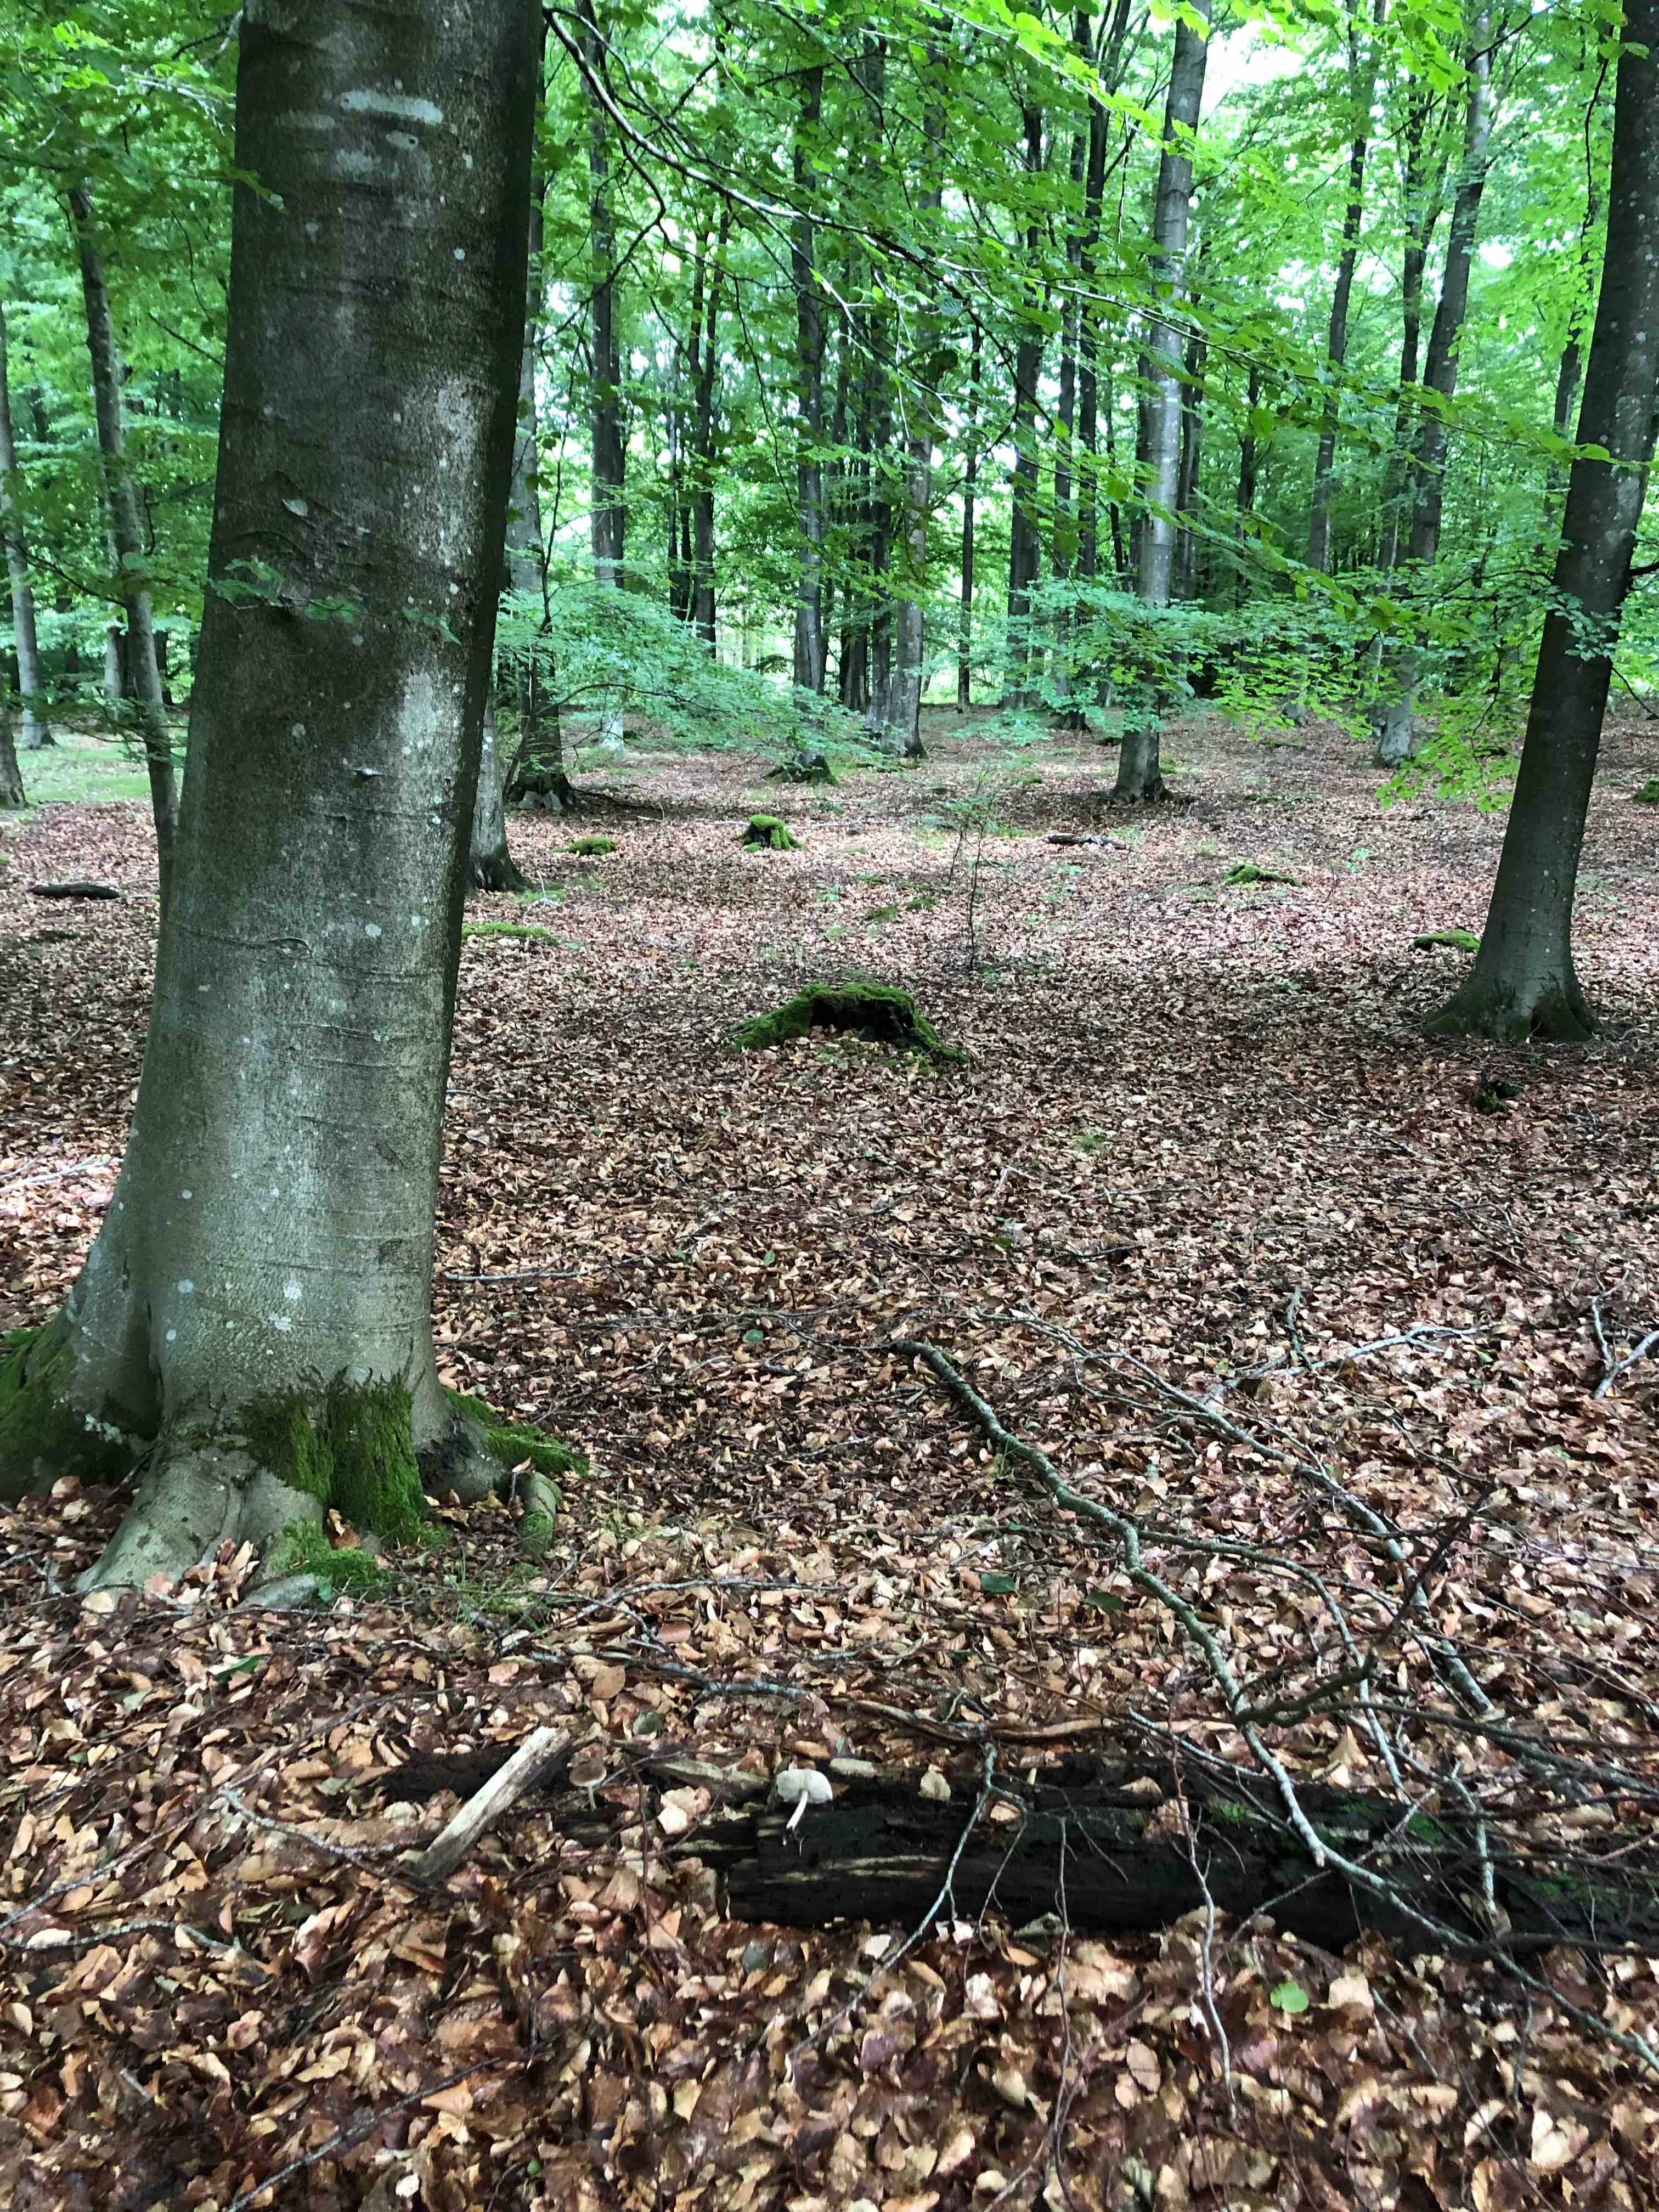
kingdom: Fungi
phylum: Basidiomycota
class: Agaricomycetes
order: Agaricales
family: Pluteaceae
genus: Pluteus
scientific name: Pluteus cervinus
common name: sodfarvet skærmhat
